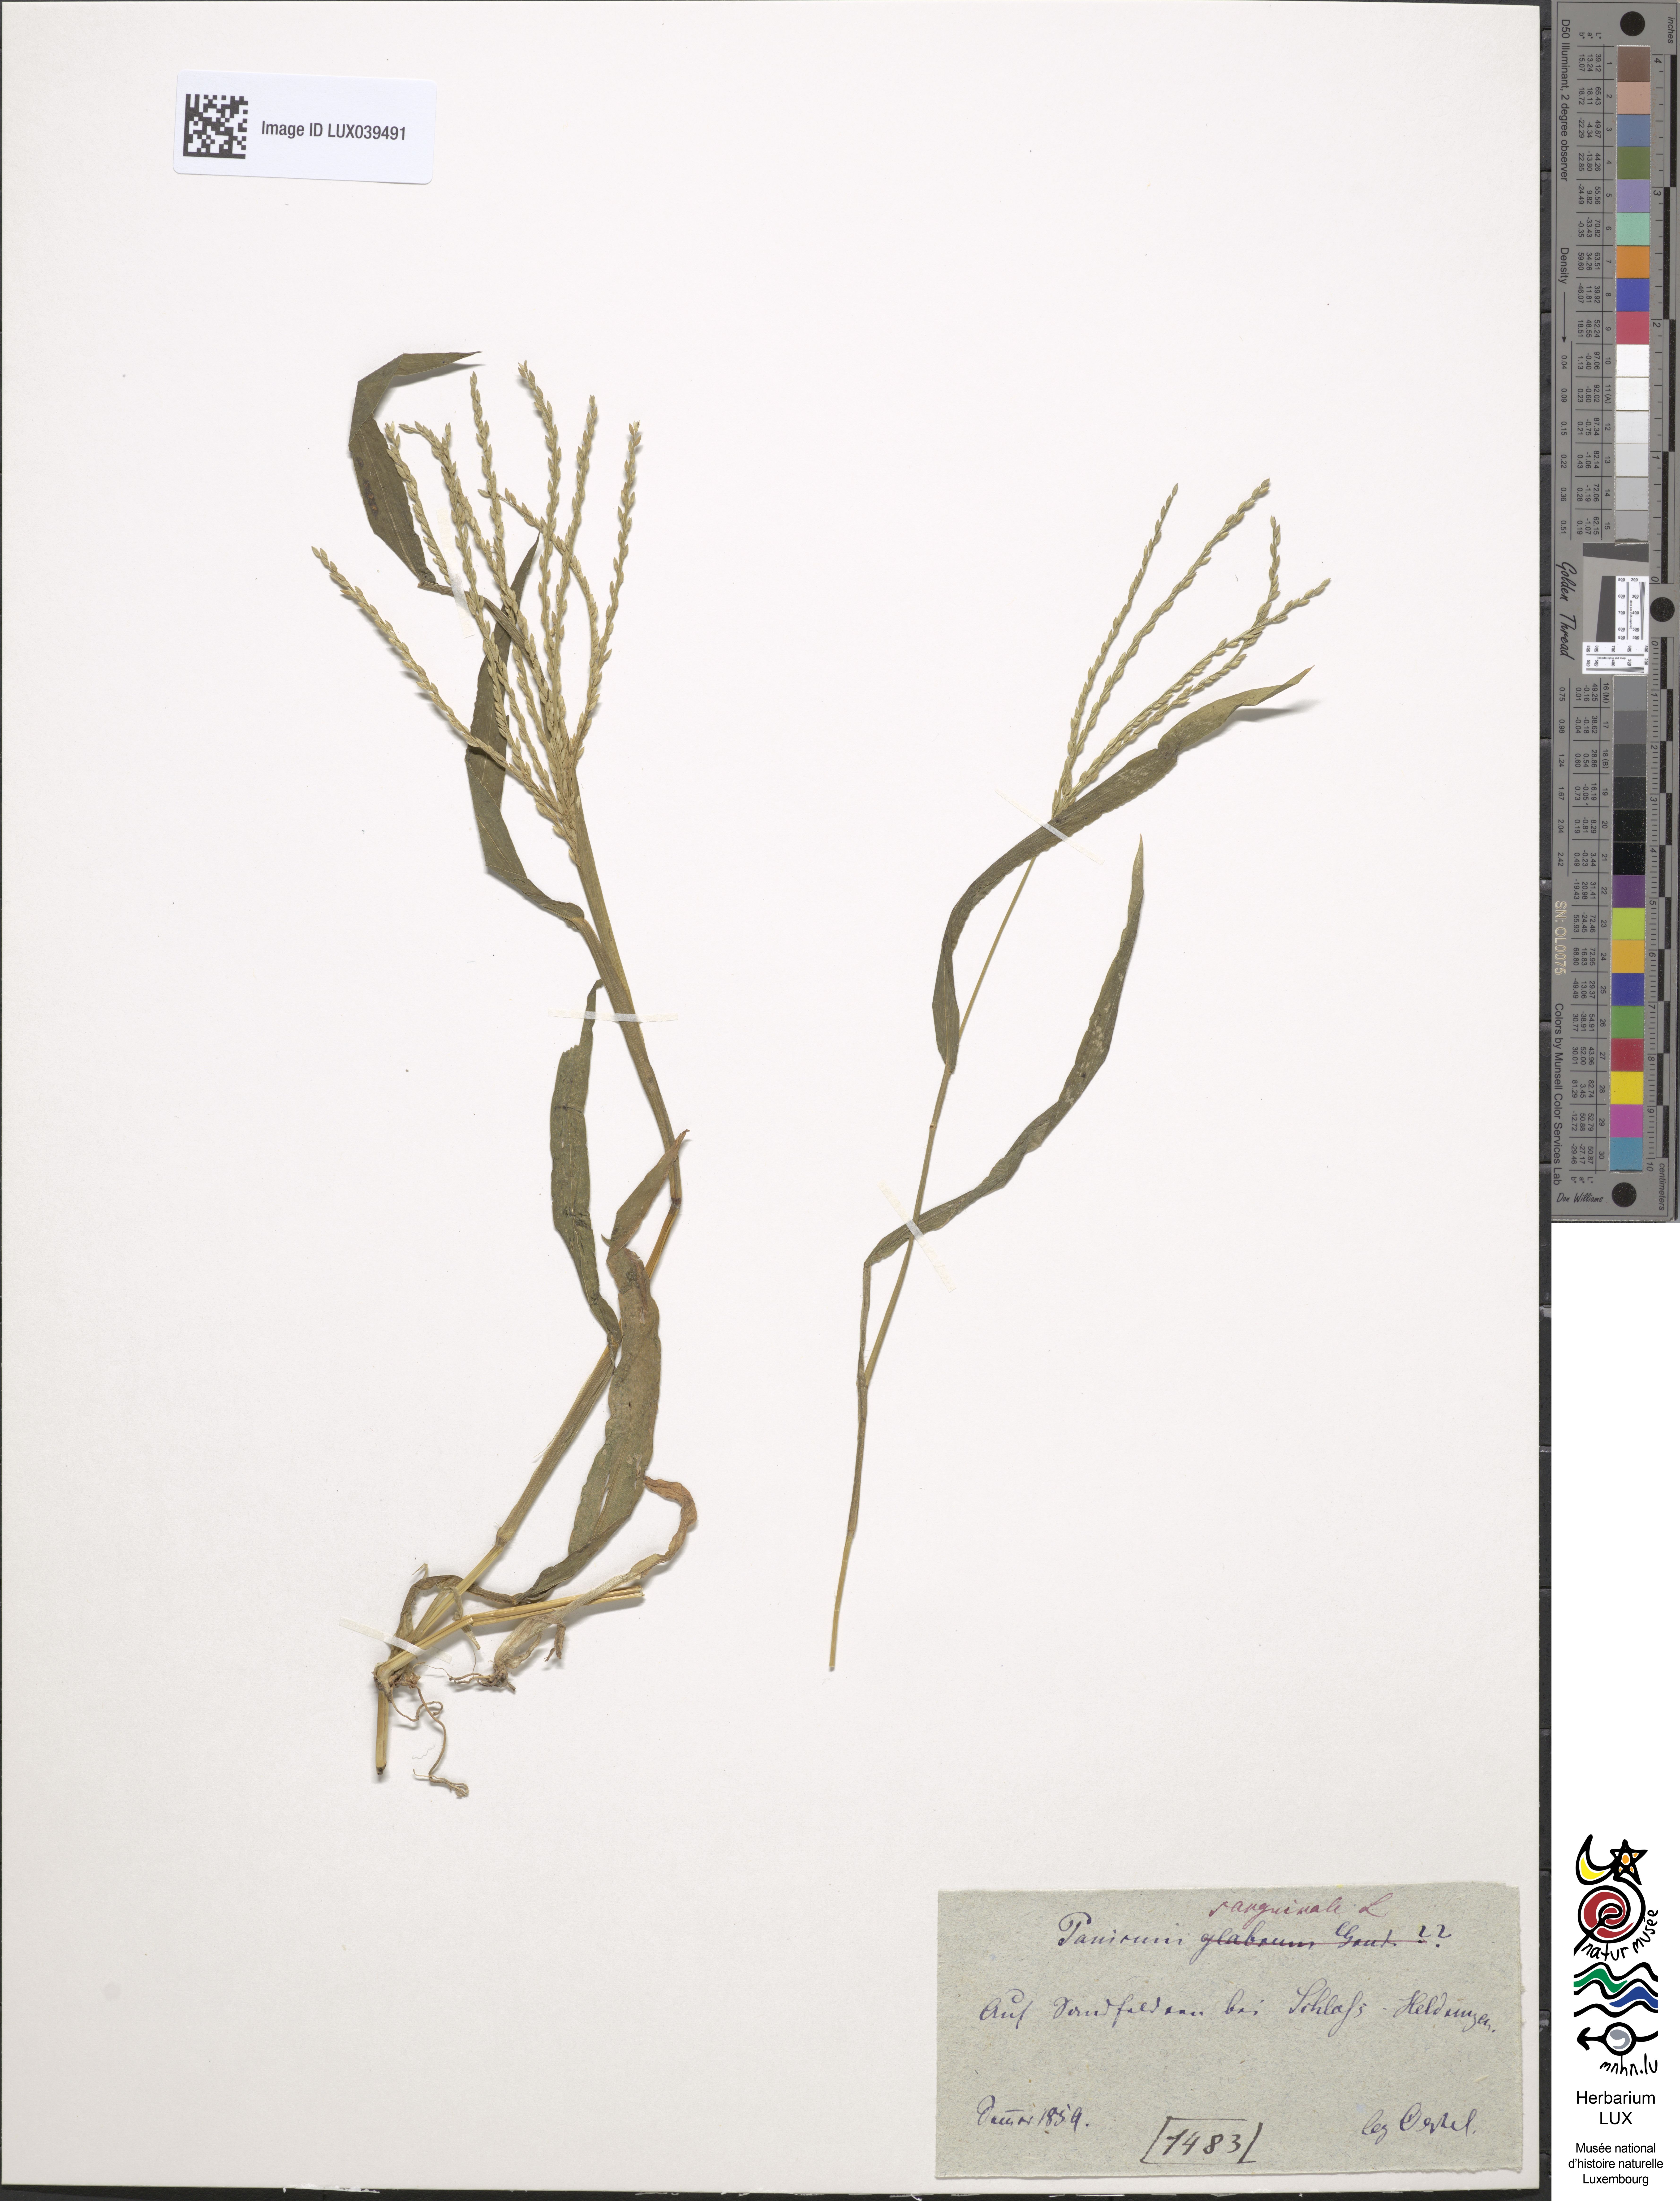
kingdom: Plantae
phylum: Tracheophyta
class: Liliopsida
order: Poales
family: Poaceae
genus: Digitaria
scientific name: Digitaria sanguinalis
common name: Hairy crabgrass
